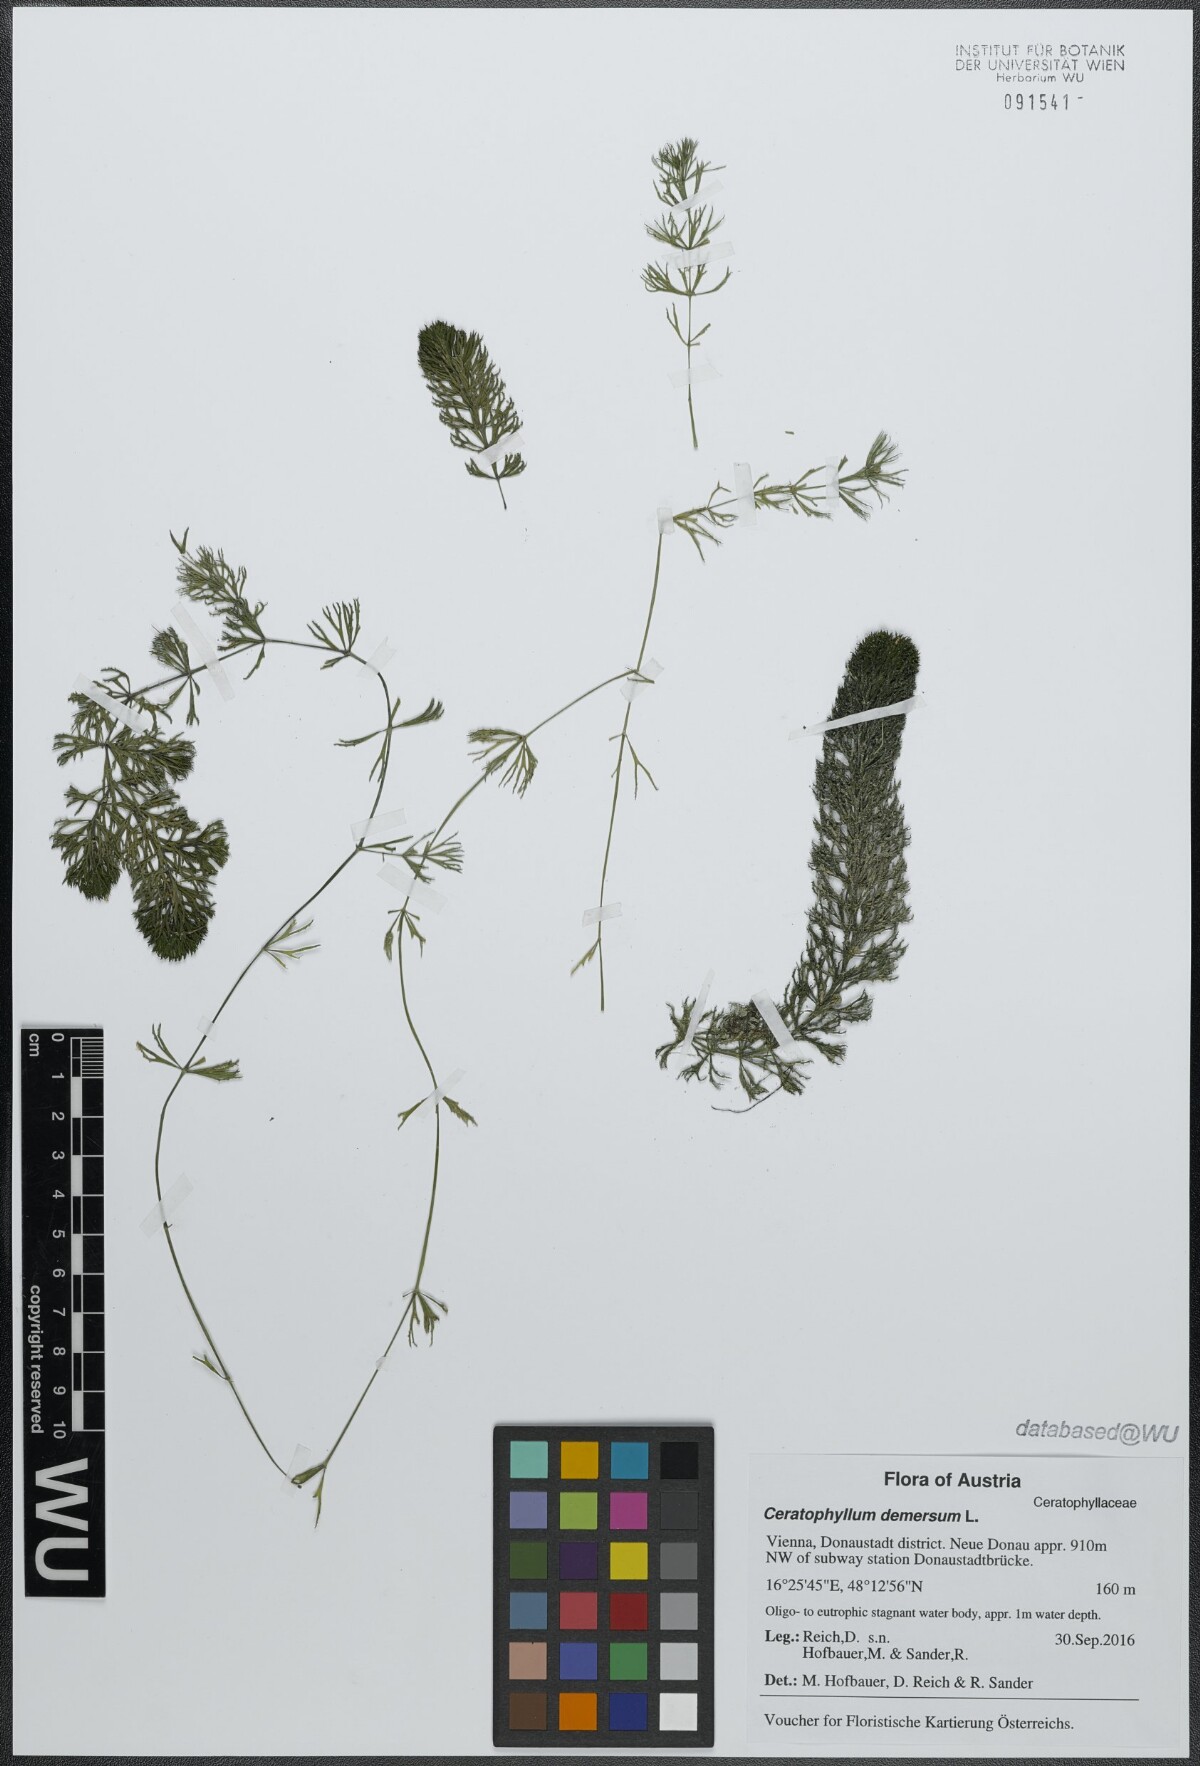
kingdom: Plantae
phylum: Tracheophyta
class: Magnoliopsida
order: Ceratophyllales
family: Ceratophyllaceae
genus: Ceratophyllum
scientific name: Ceratophyllum demersum
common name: Rigid hornwort
